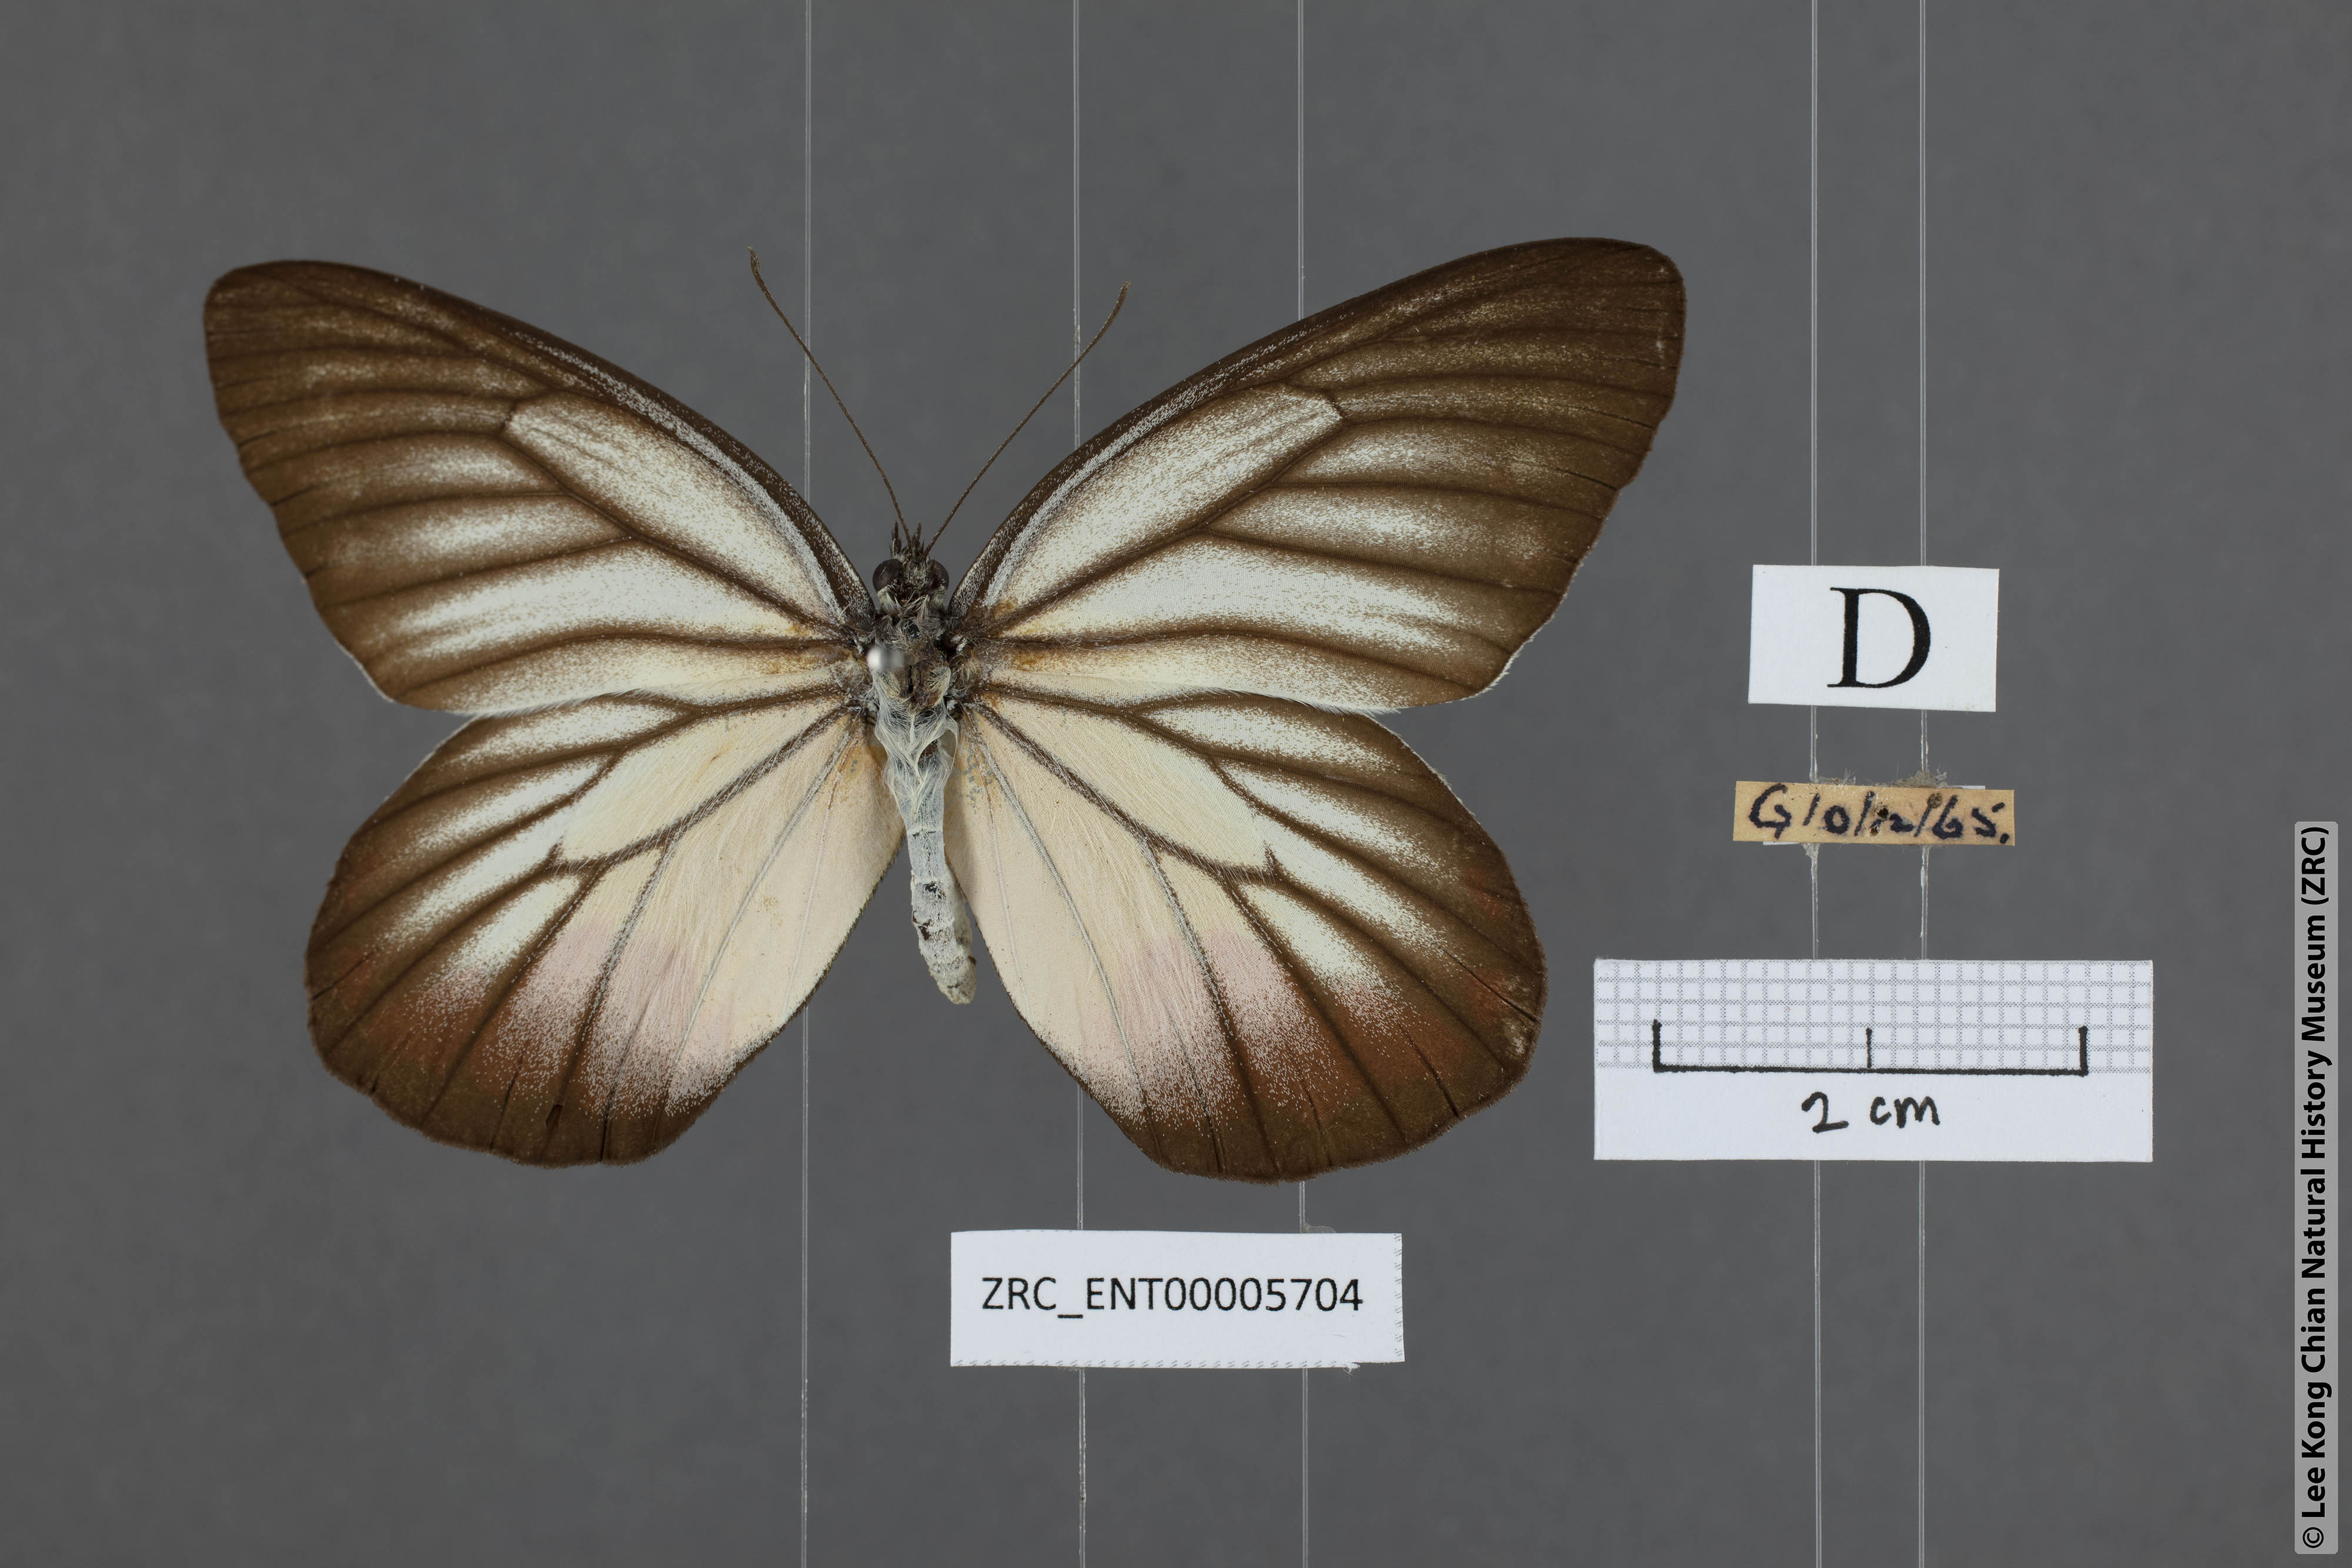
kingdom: Animalia
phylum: Arthropoda
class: Insecta
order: Lepidoptera
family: Pieridae
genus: Delias
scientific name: Delias hyparete
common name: Painted jezebel
